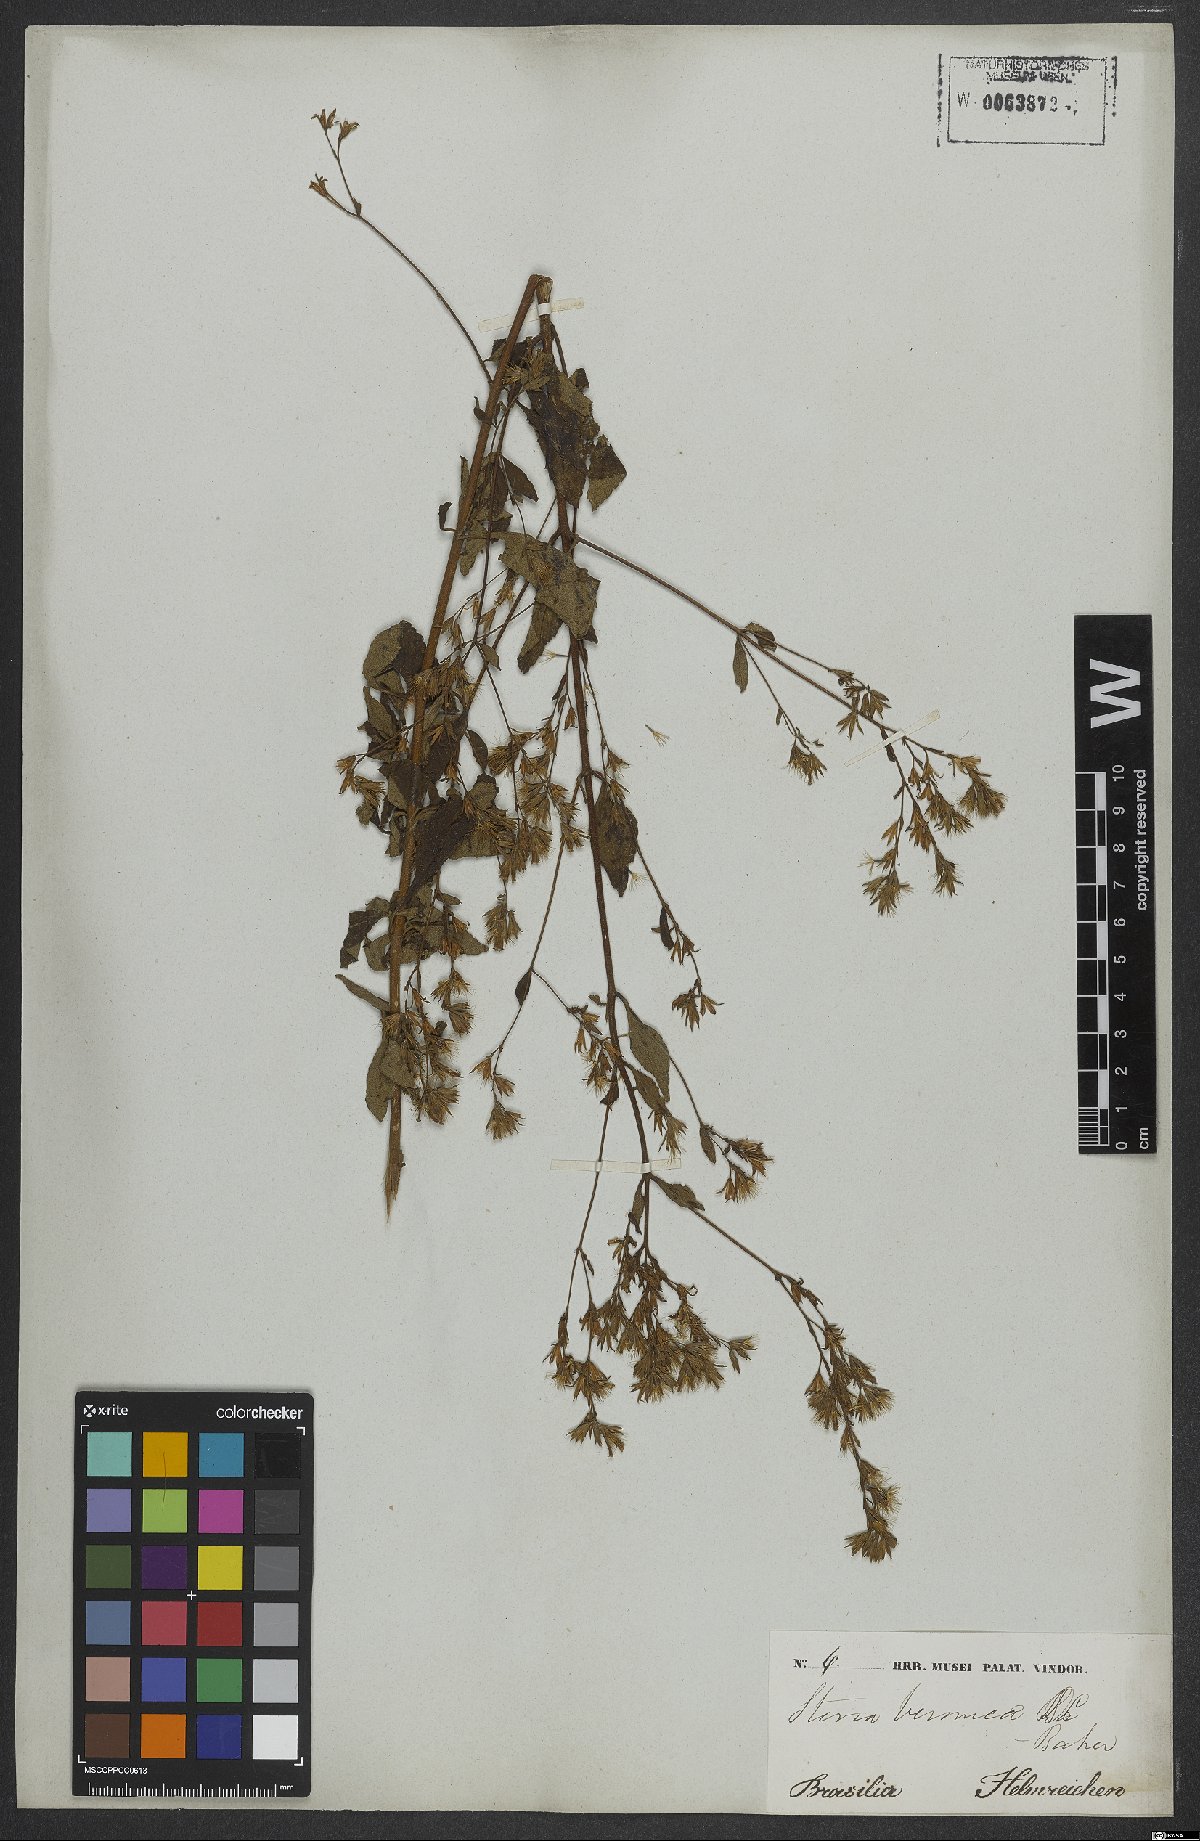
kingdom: Plantae
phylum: Tracheophyta
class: Magnoliopsida
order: Asterales
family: Asteraceae
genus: Stevia
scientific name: Stevia veronicae
